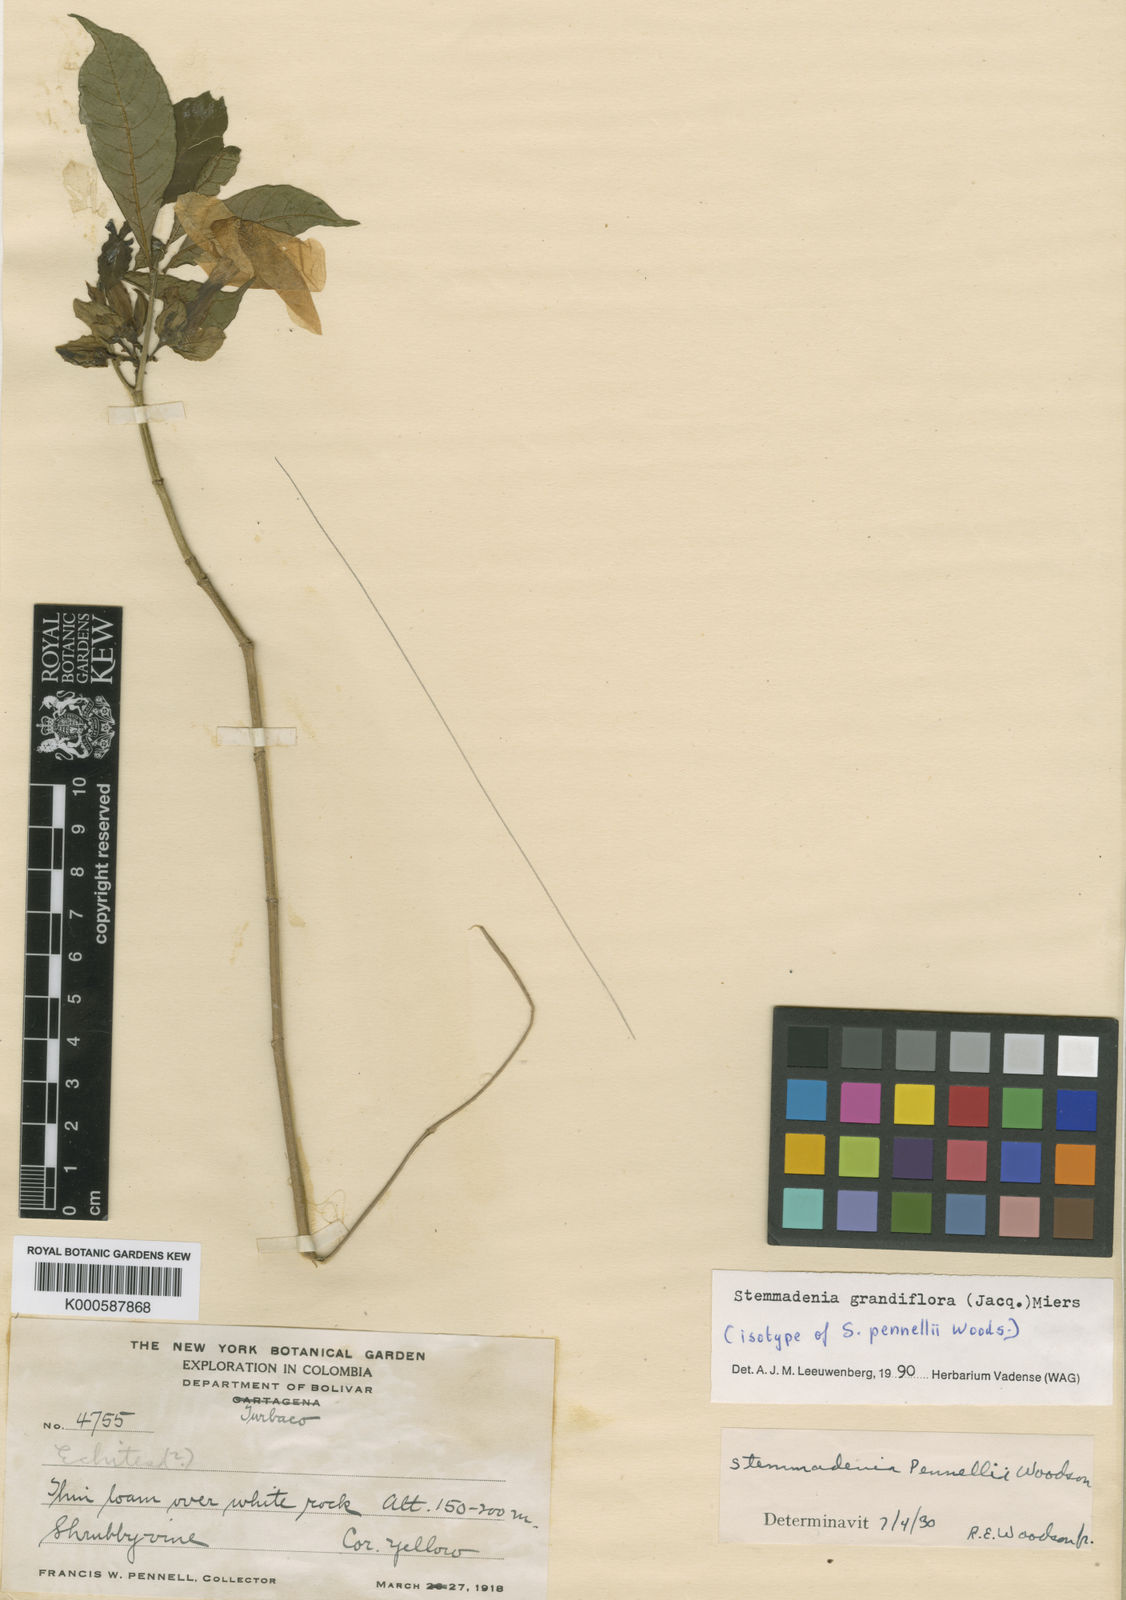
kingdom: Plantae
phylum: Tracheophyta
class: Magnoliopsida
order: Gentianales
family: Apocynaceae
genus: Tabernaemontana
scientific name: Tabernaemontana grandiflora
